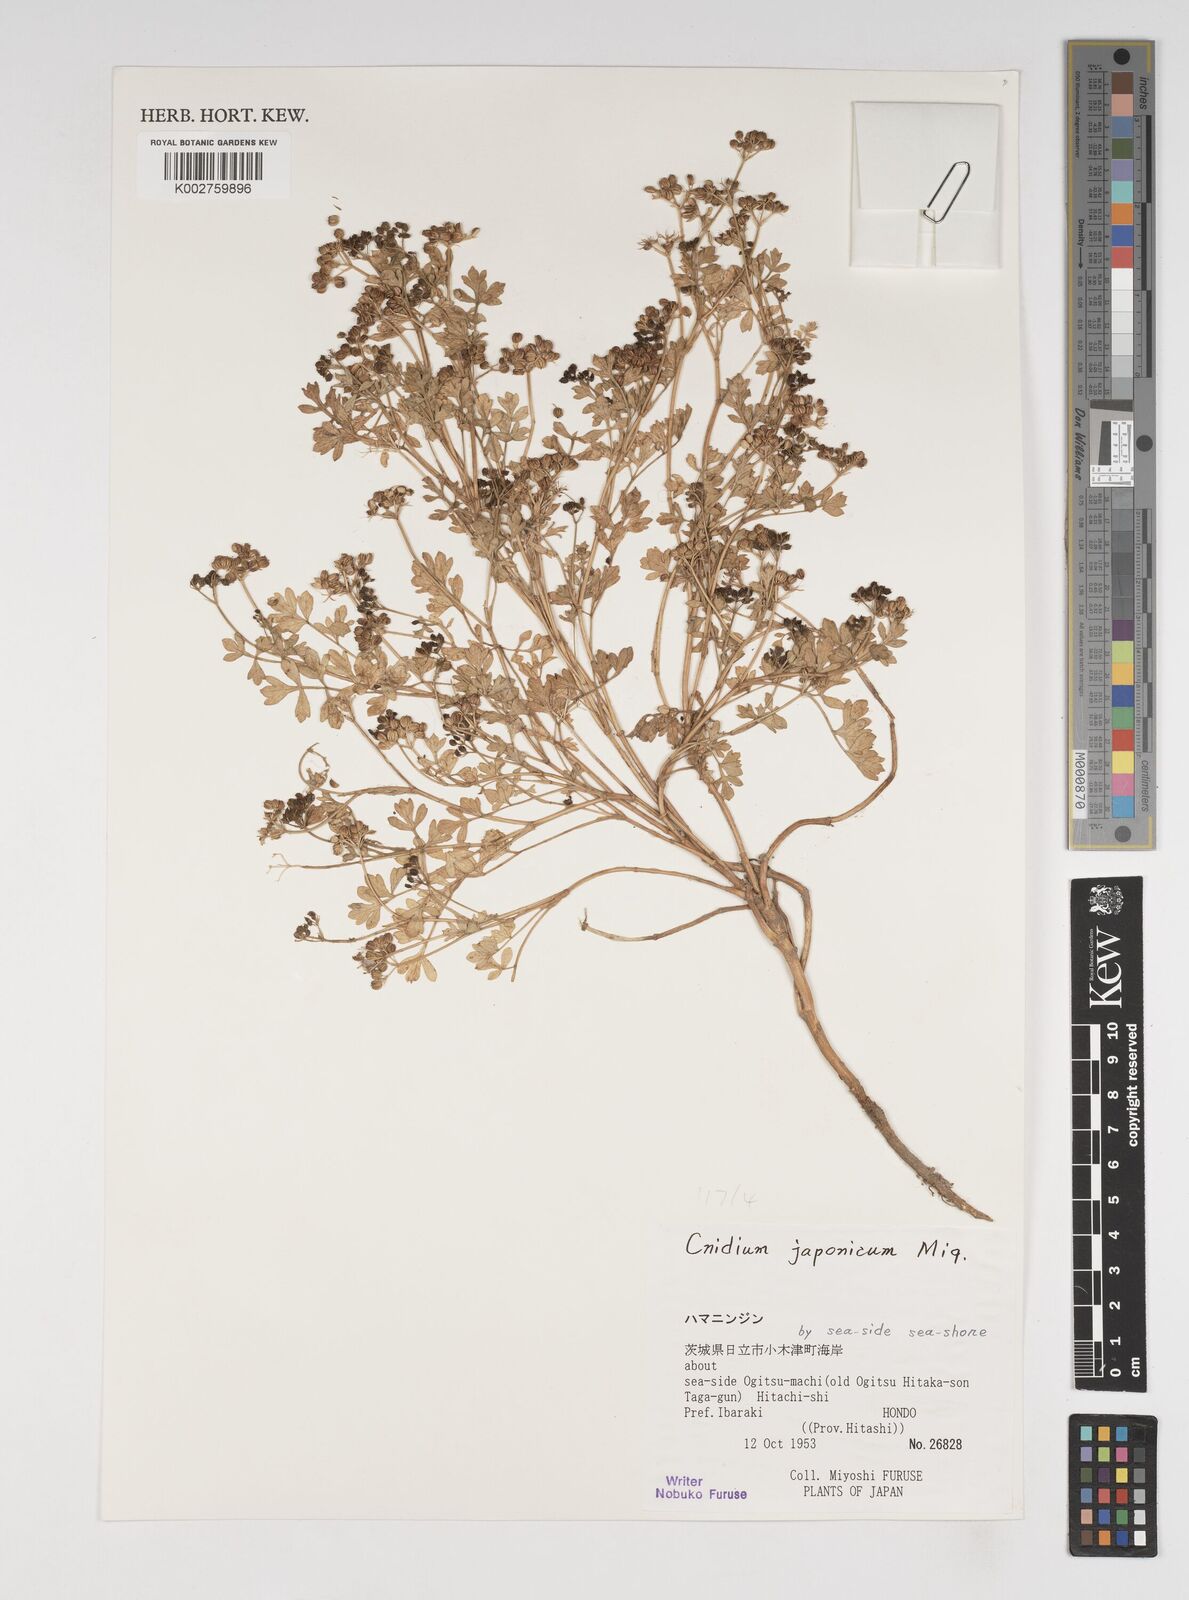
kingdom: Plantae
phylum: Tracheophyta
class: Magnoliopsida
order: Apiales
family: Apiaceae
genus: Cnidium
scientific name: Cnidium japonicum
